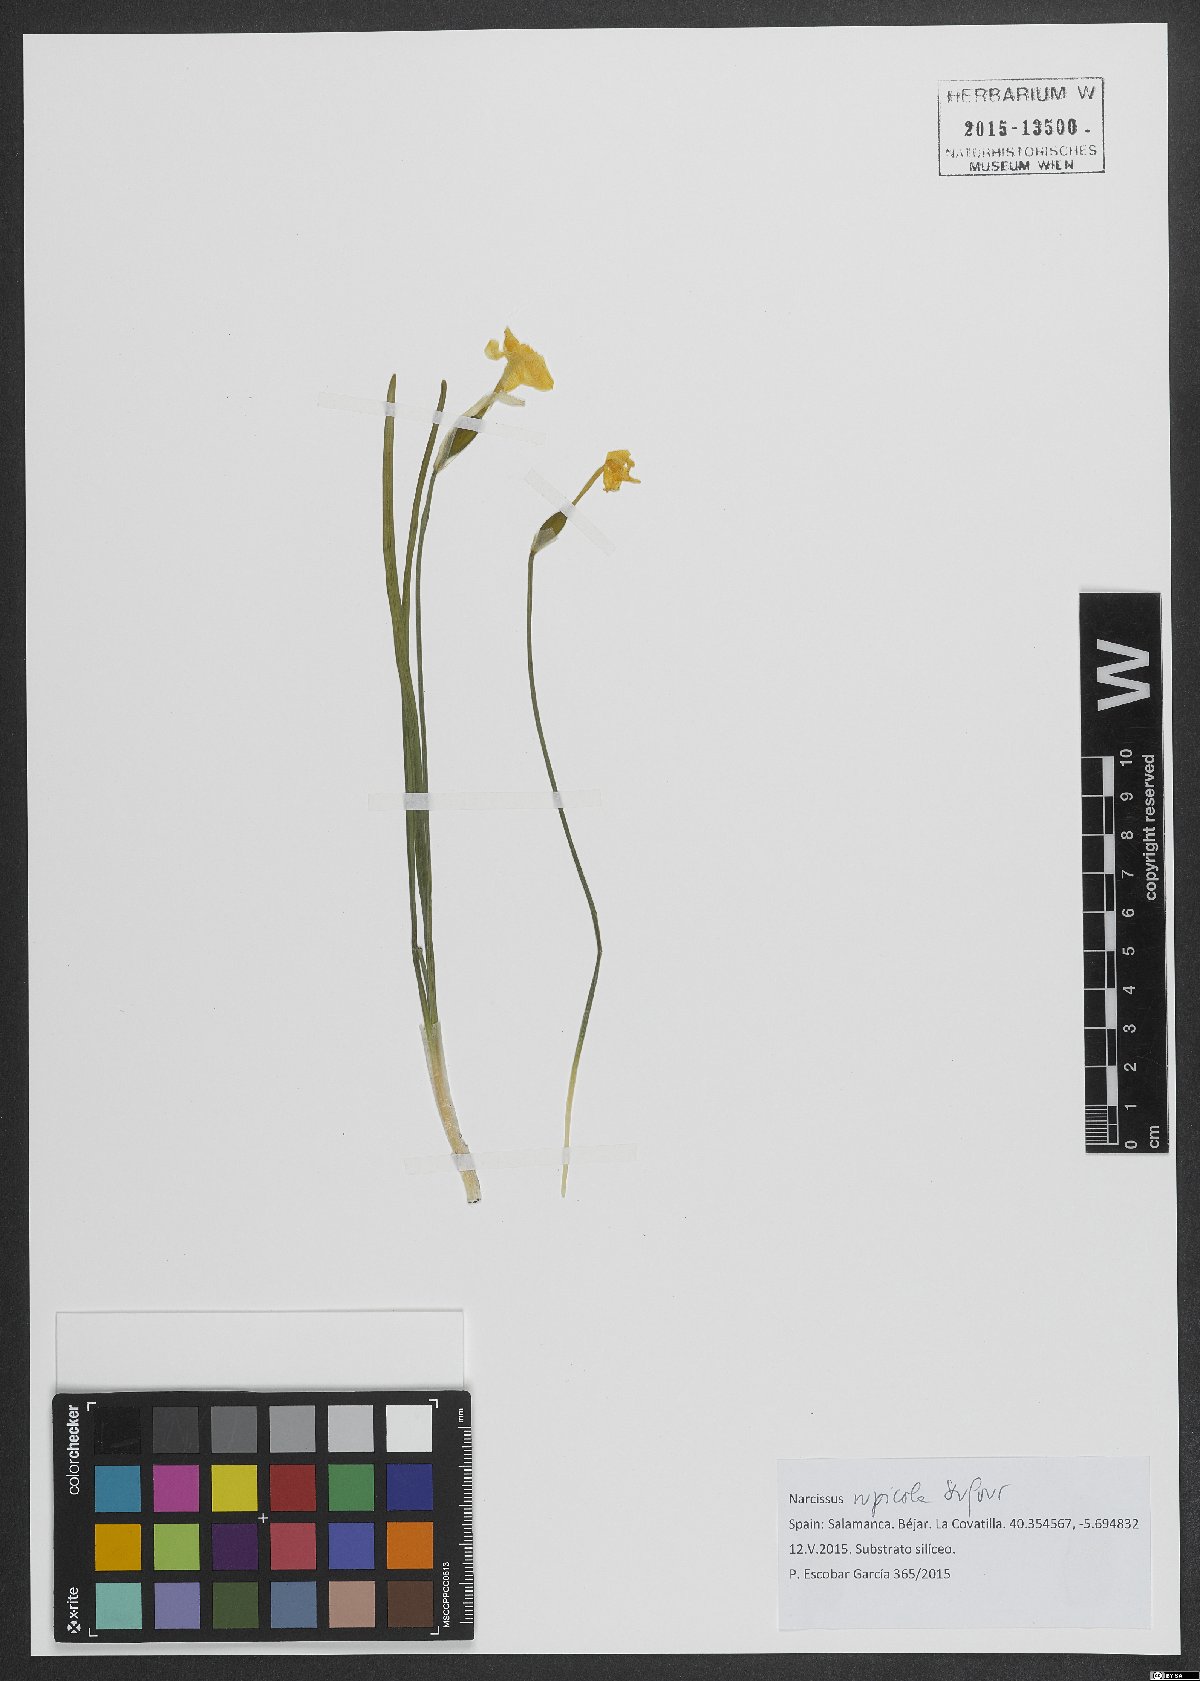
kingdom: Plantae
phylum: Tracheophyta
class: Liliopsida
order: Asparagales
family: Amaryllidaceae
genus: Narcissus
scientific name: Narcissus rupicola
